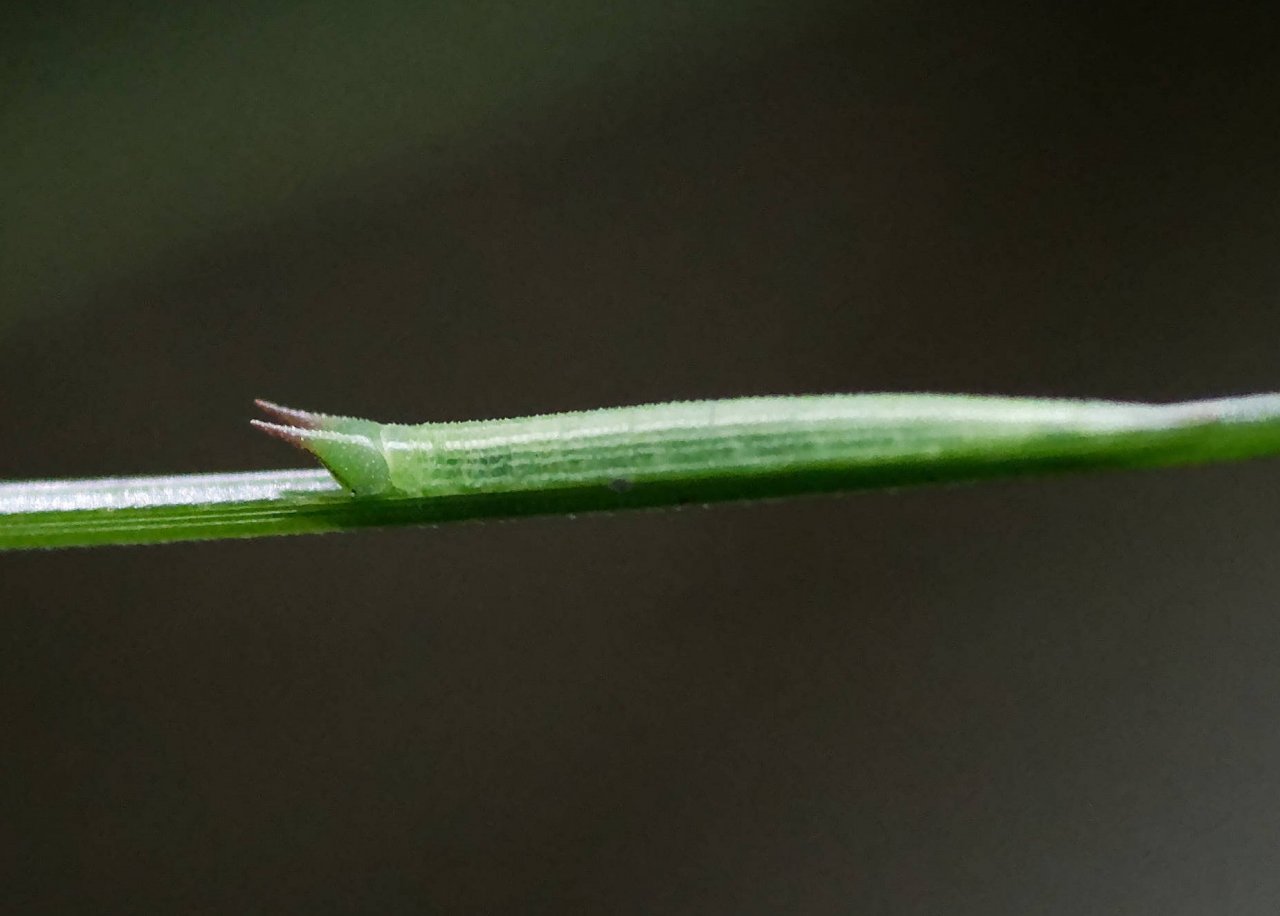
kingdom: Animalia
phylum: Arthropoda
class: Insecta
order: Lepidoptera
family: Nymphalidae
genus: Lethe
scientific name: Lethe eurydice
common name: Appalachian Eyed Brown
